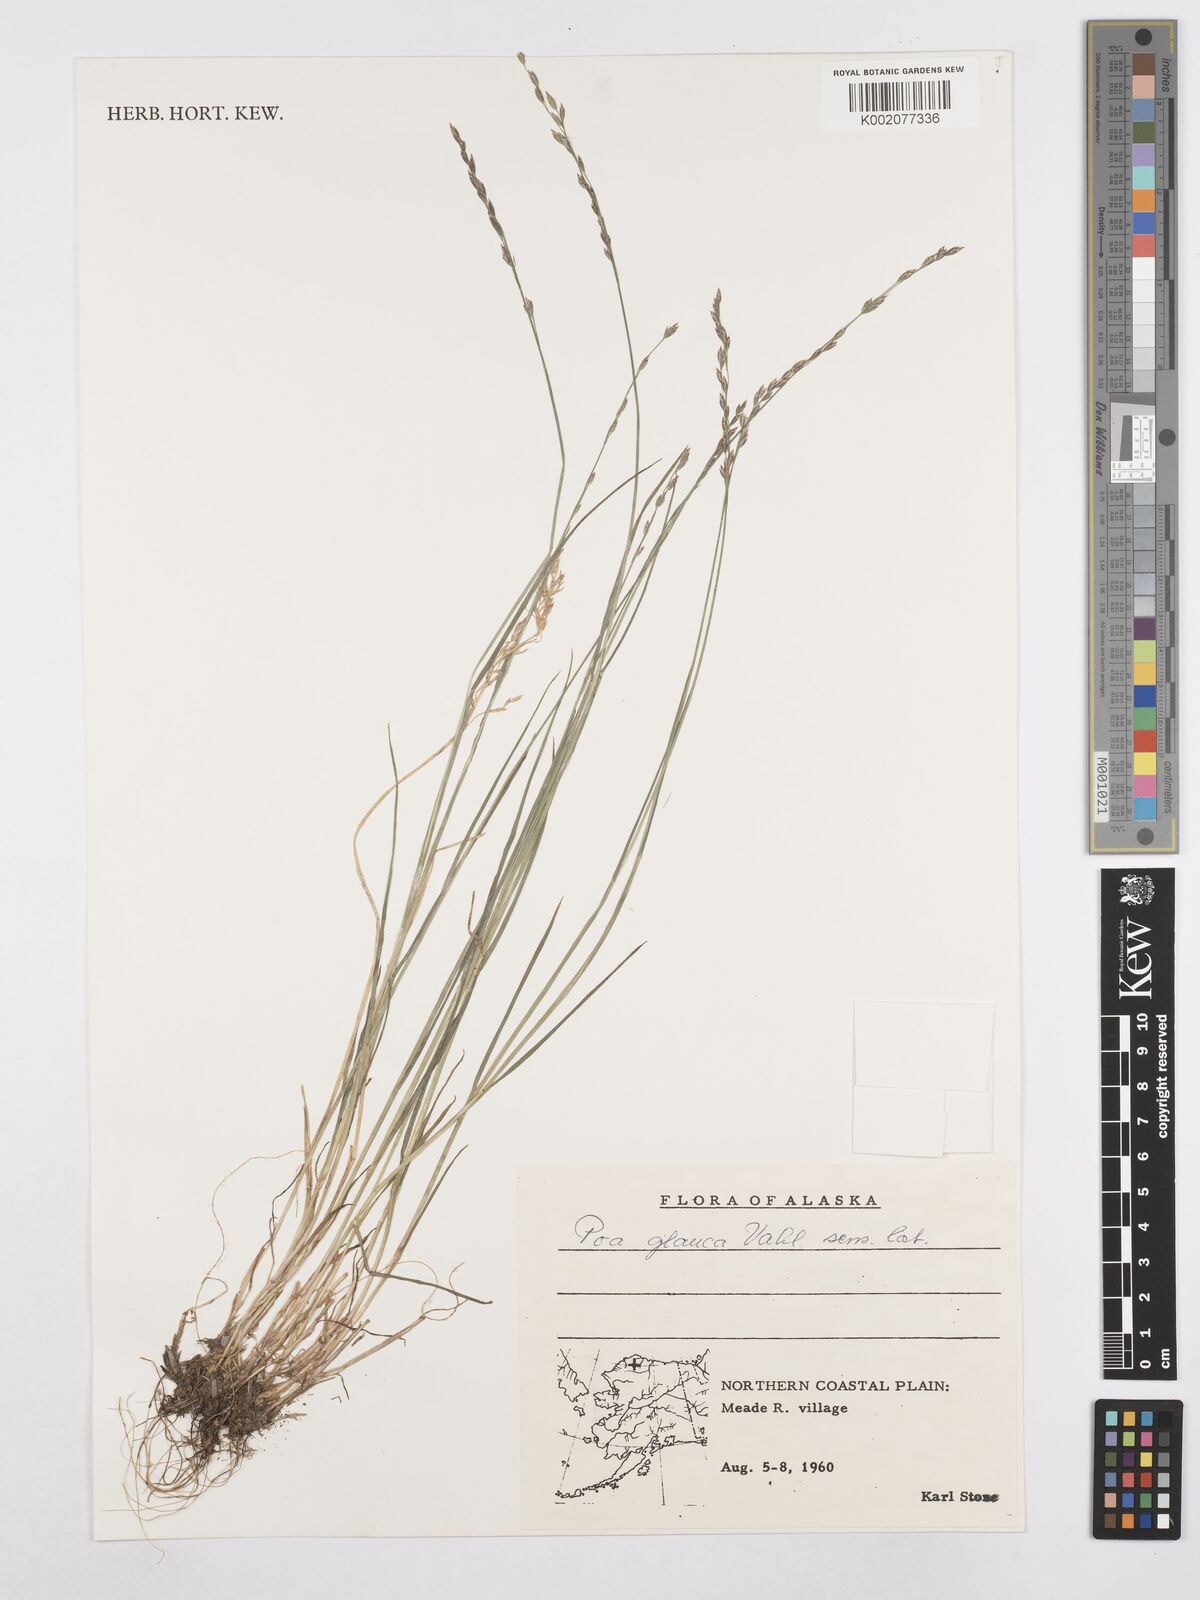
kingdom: Plantae
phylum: Tracheophyta
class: Liliopsida
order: Poales
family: Poaceae
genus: Poa
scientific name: Poa glauca
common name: Glaucous bluegrass
